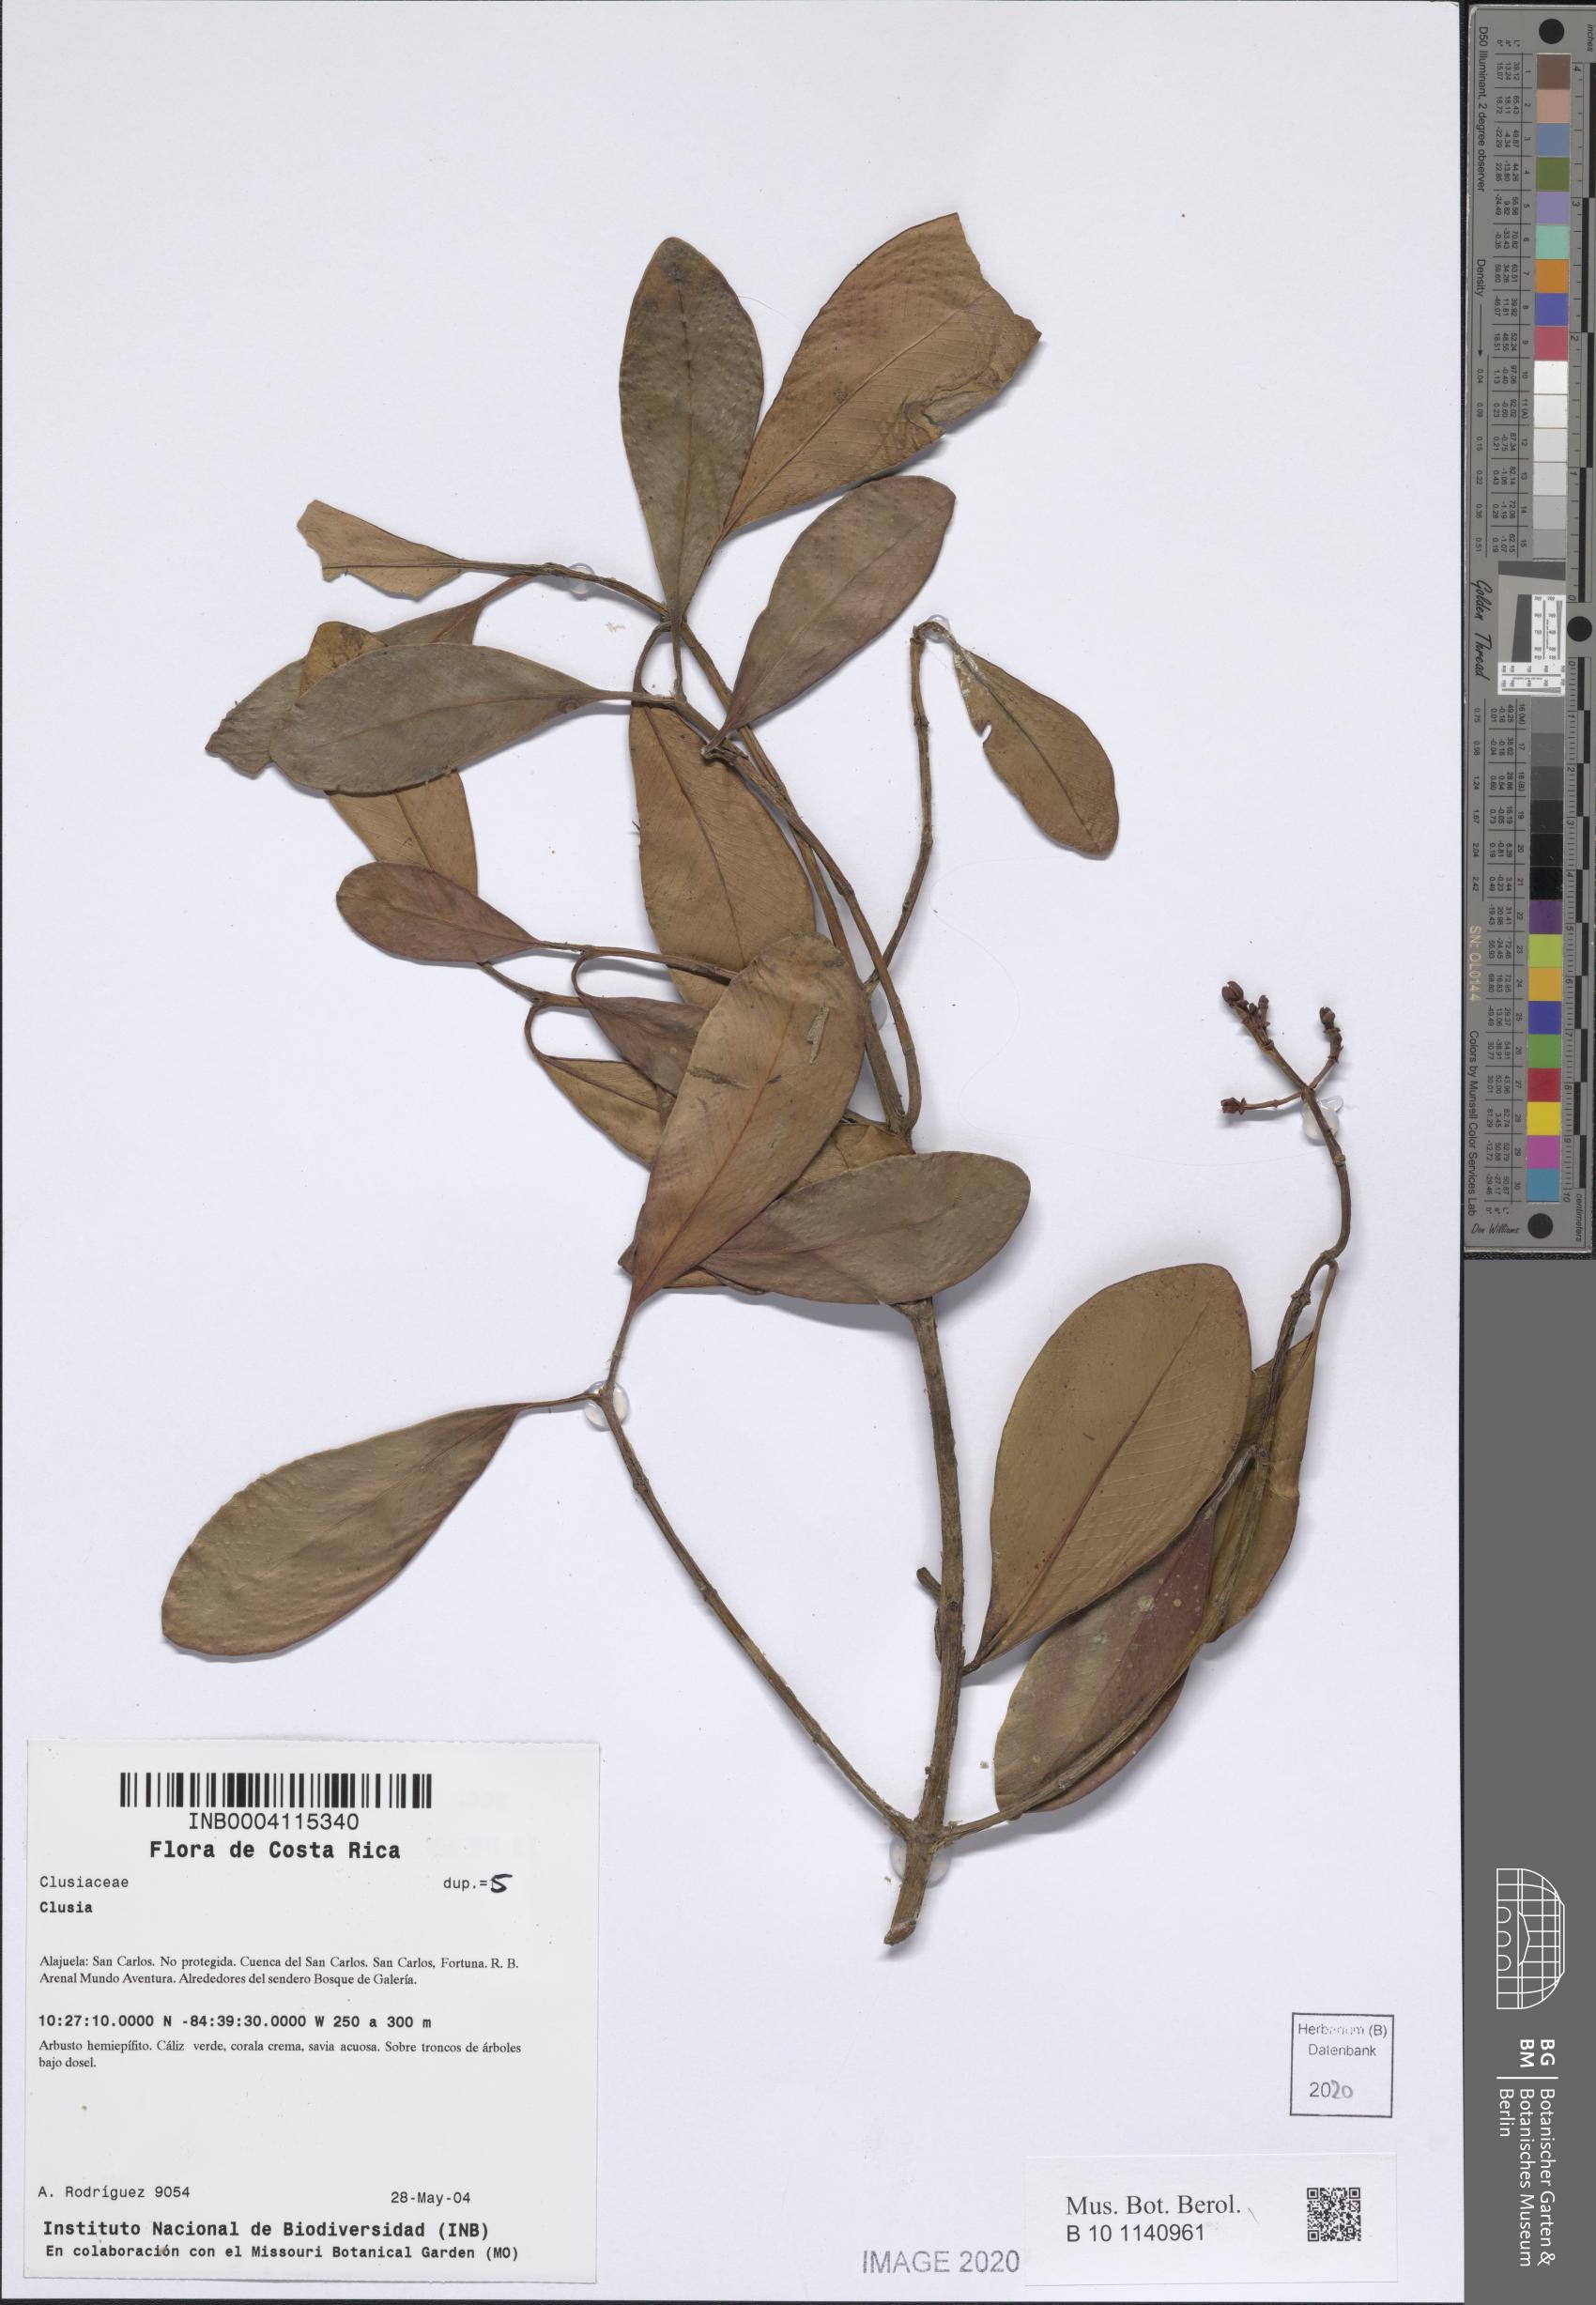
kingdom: Plantae
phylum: Tracheophyta
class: Magnoliopsida
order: Malpighiales
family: Clusiaceae
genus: Clusia
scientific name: Clusia
